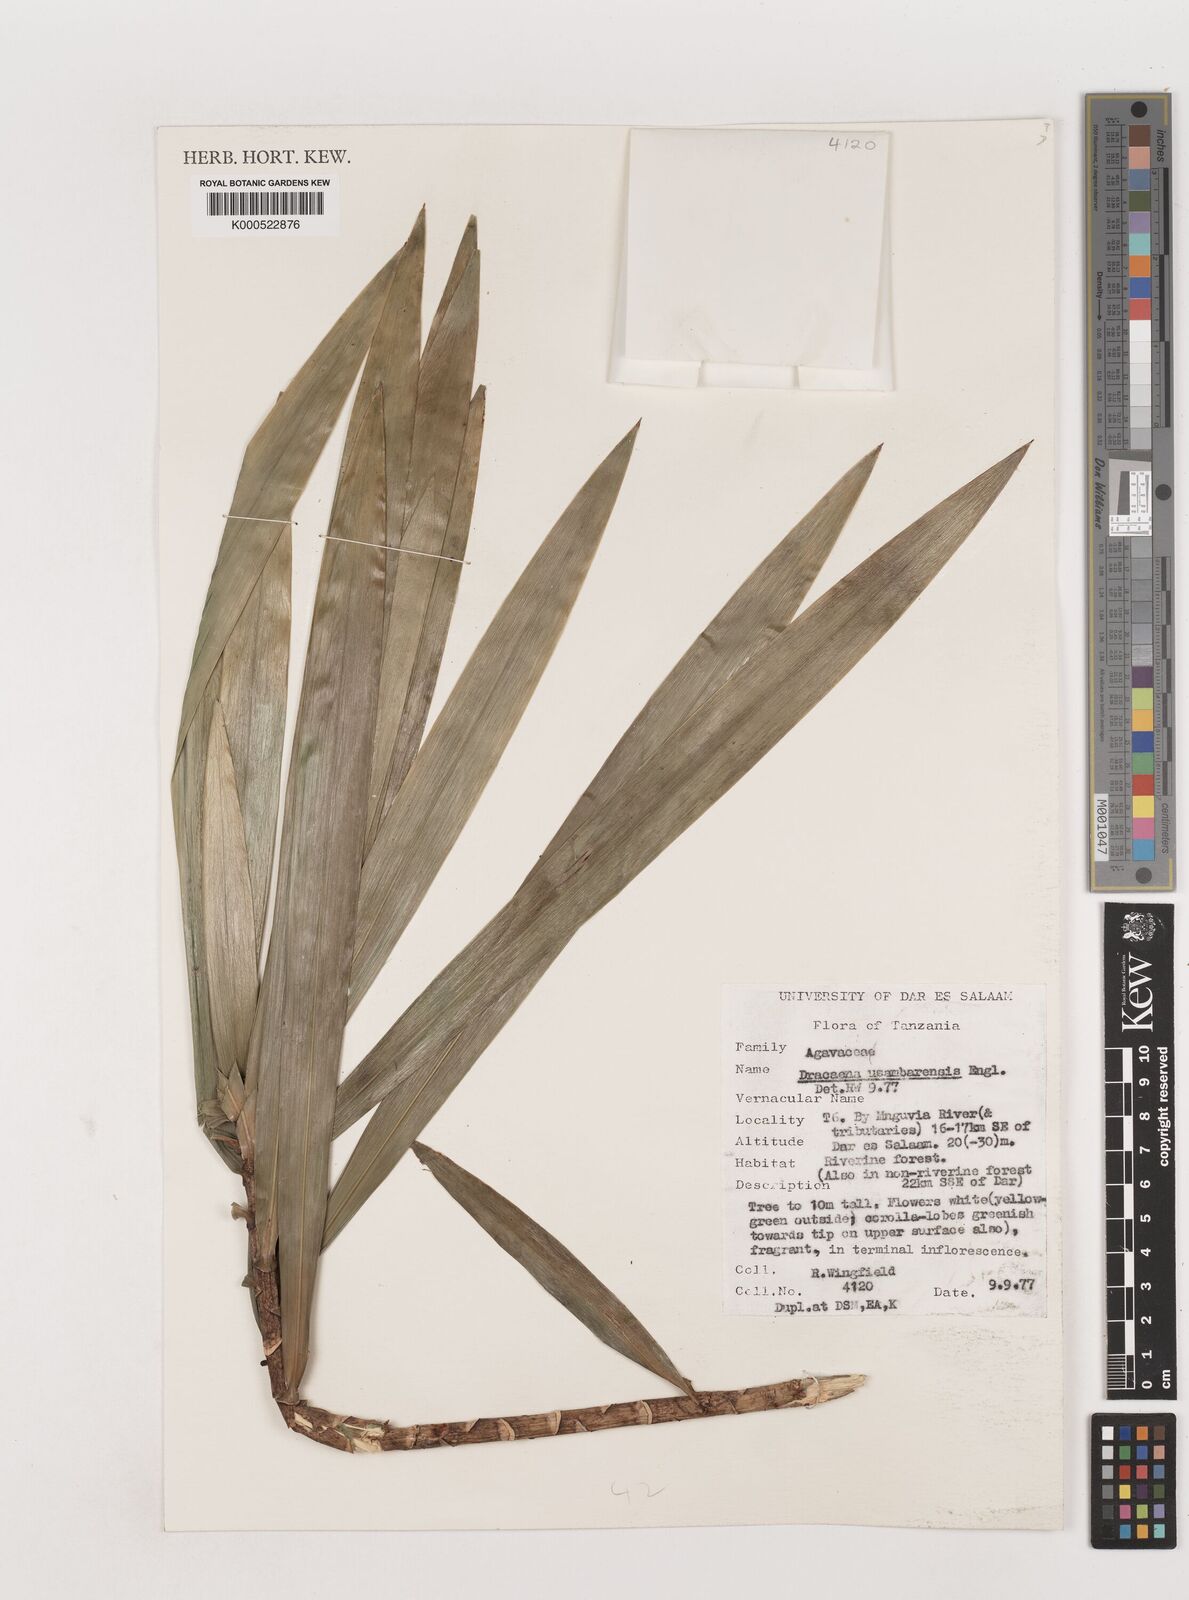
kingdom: Plantae
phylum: Tracheophyta
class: Liliopsida
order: Asparagales
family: Asparagaceae
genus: Dracaena
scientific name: Dracaena usambarensis
